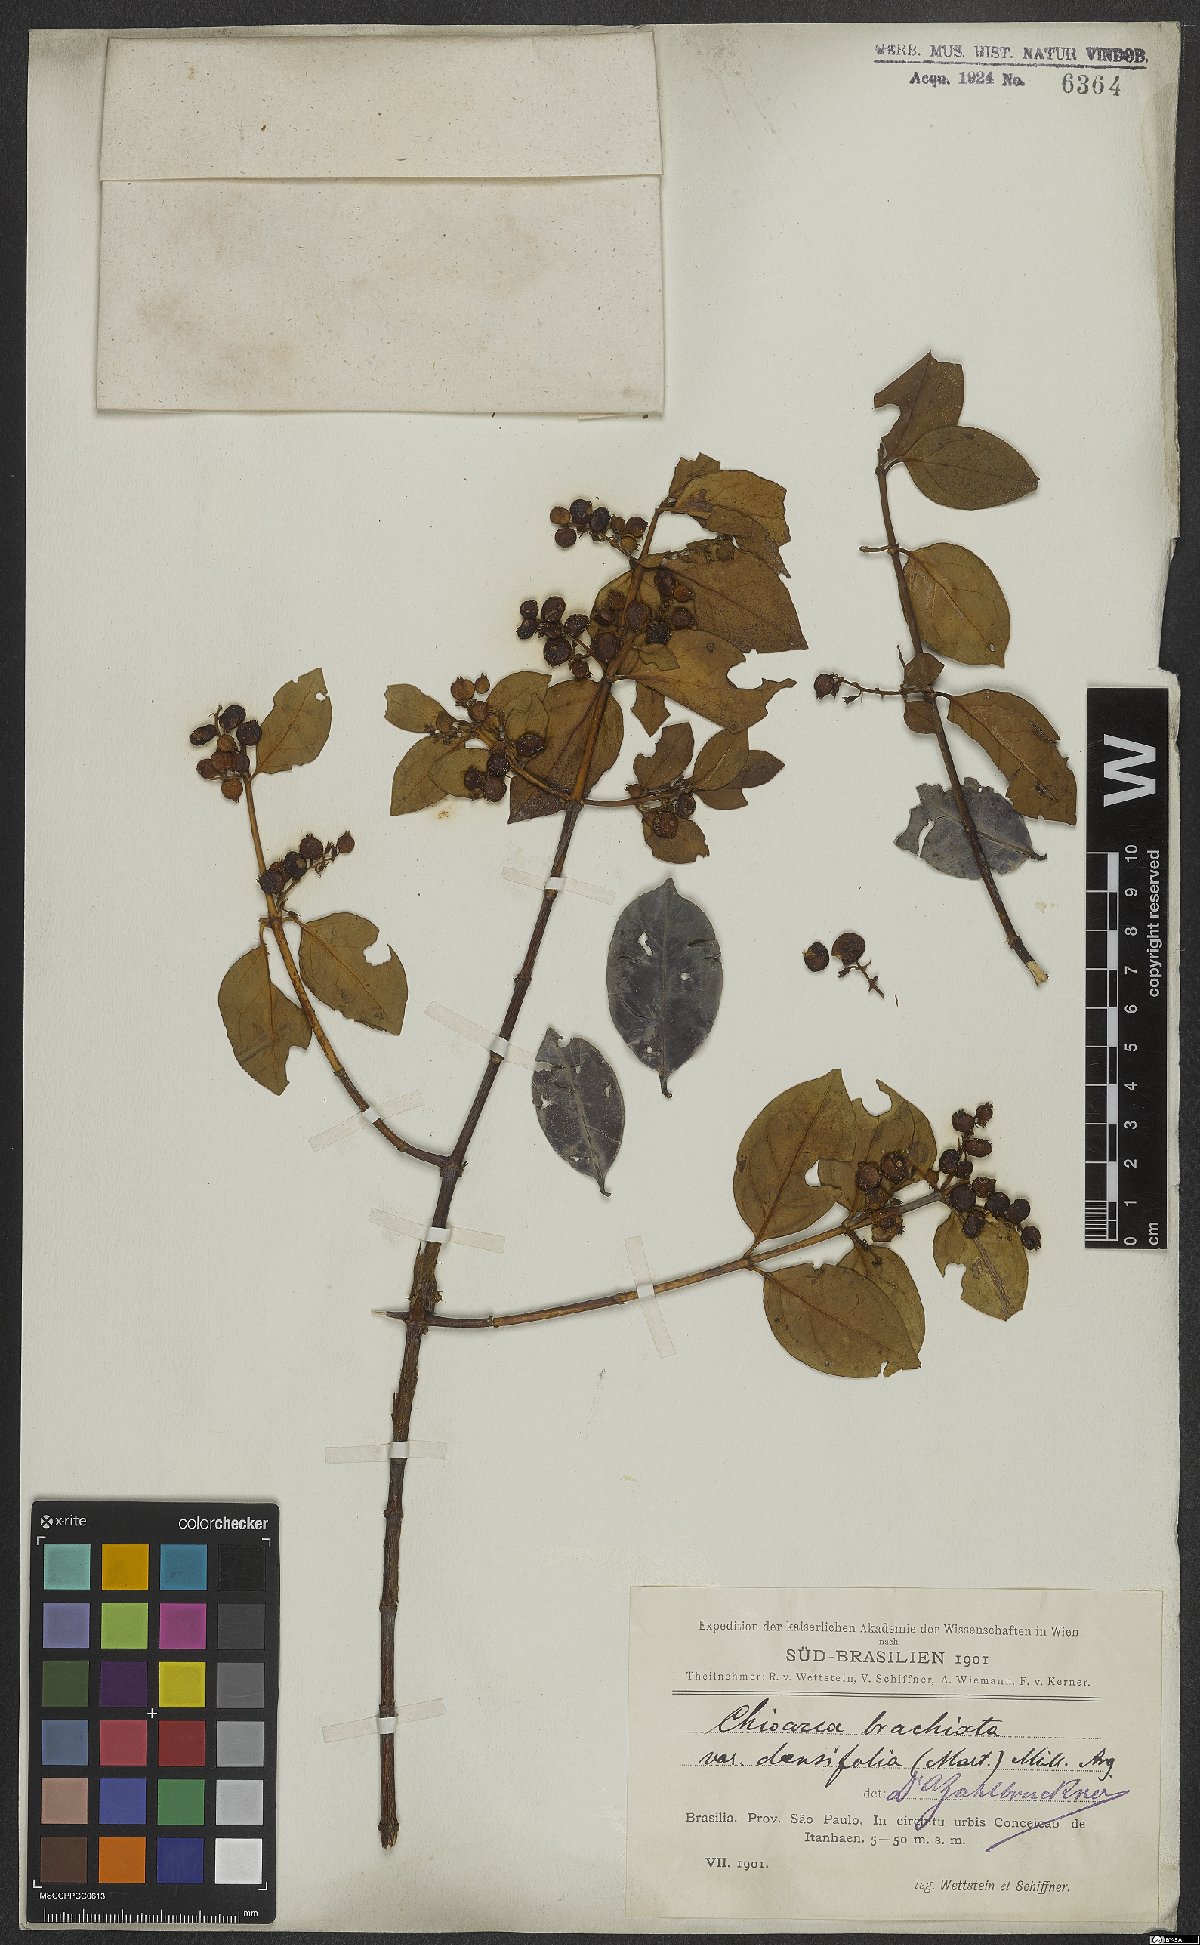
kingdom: Plantae
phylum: Tracheophyta
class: Magnoliopsida
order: Gentianales
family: Rubiaceae
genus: Chiococca
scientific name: Chiococca alba
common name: Snowberry
